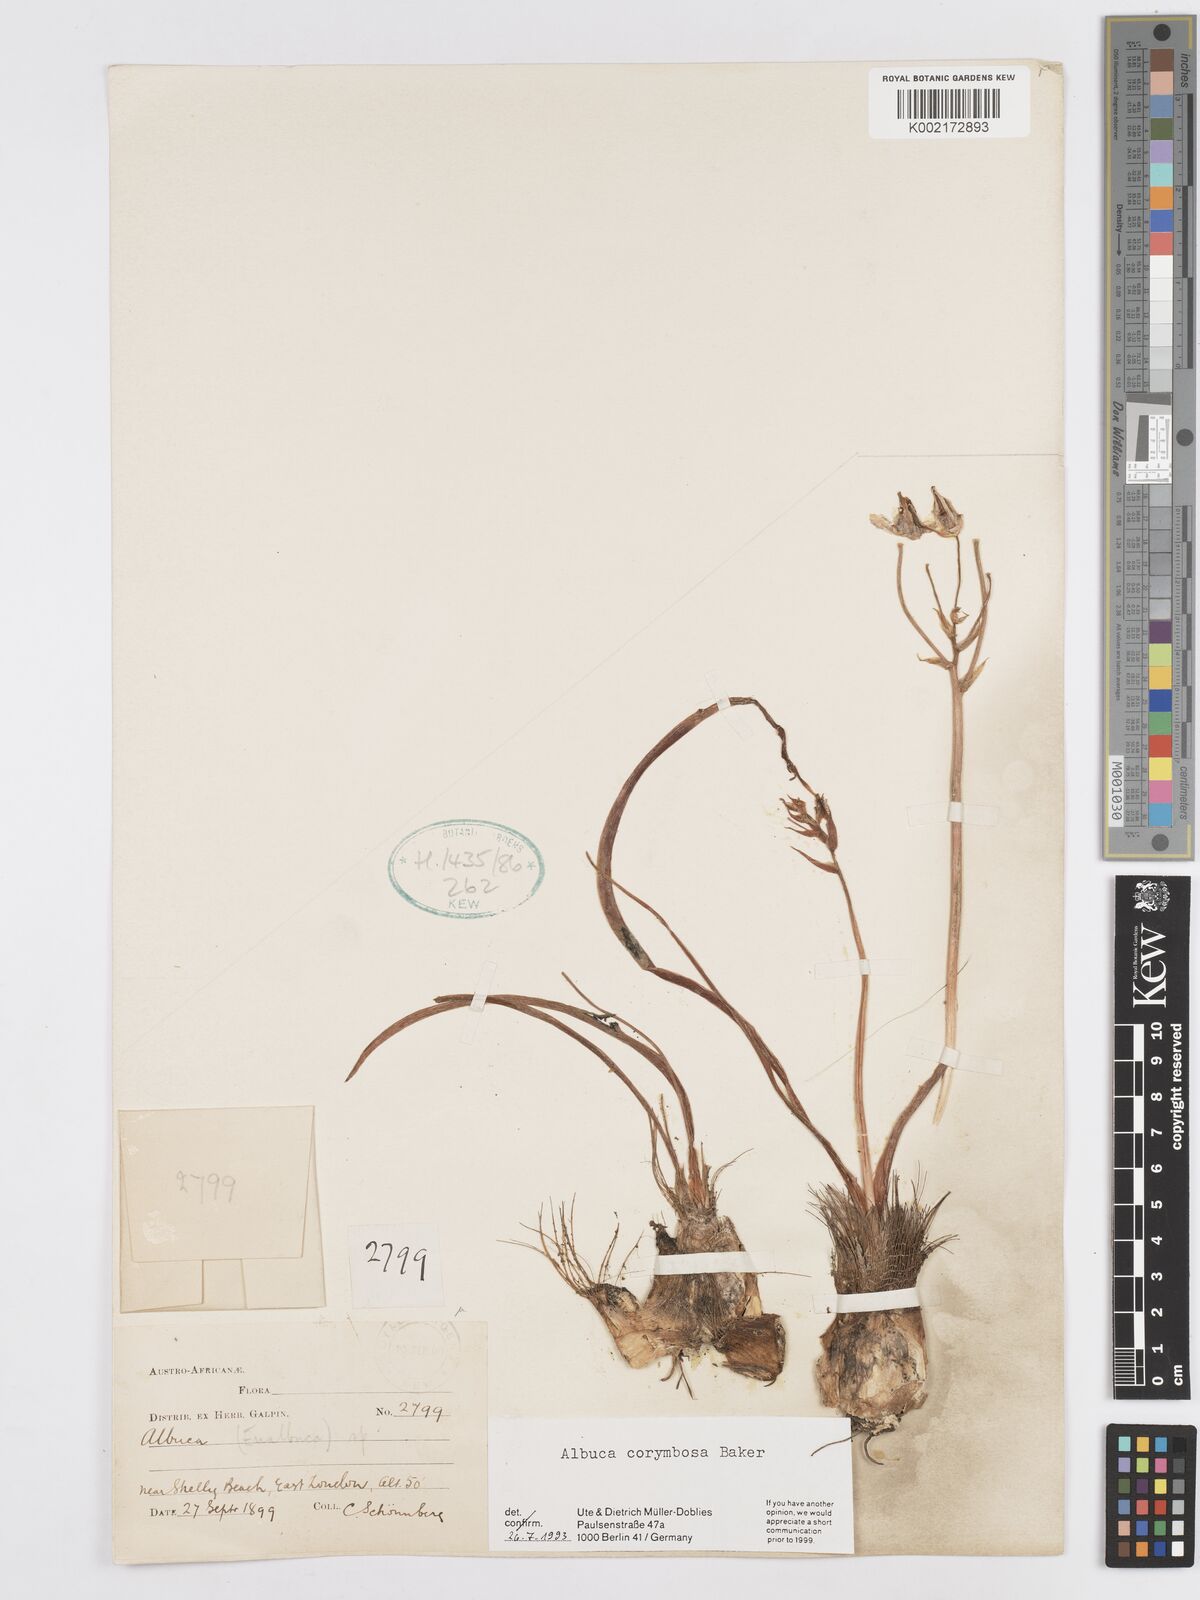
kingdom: Plantae
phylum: Tracheophyta
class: Liliopsida
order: Asparagales
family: Asparagaceae
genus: Albuca
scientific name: Albuca corymbosa
